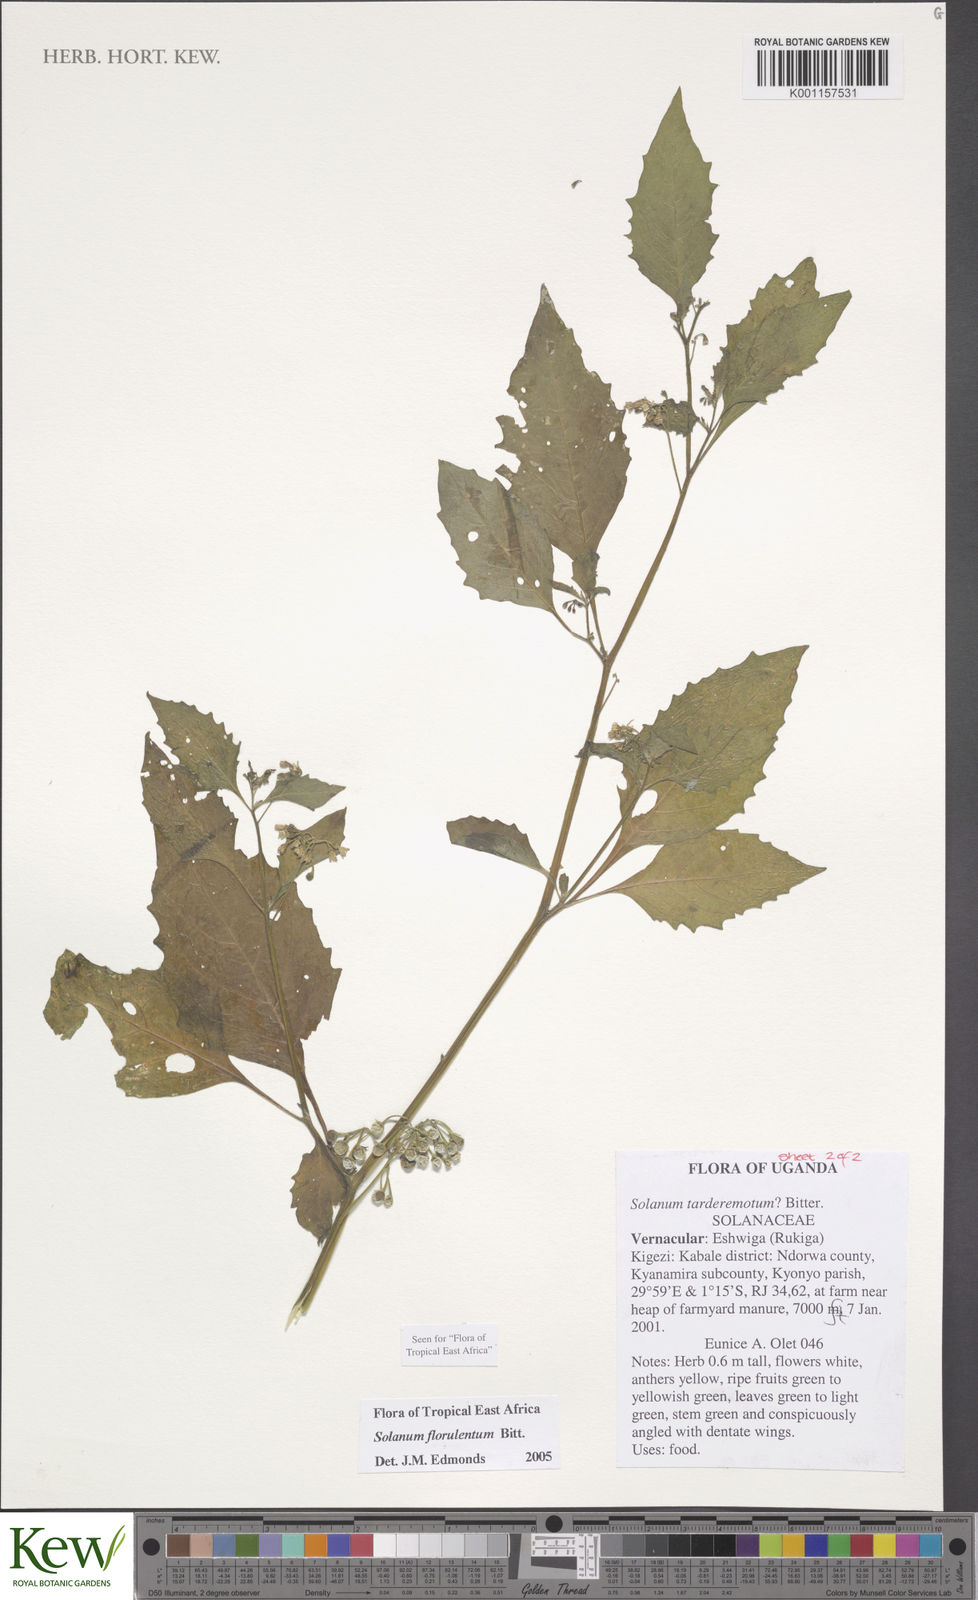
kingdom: Plantae
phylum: Tracheophyta
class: Magnoliopsida
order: Solanales
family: Solanaceae
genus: Solanum
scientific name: Solanum tarderemotum
